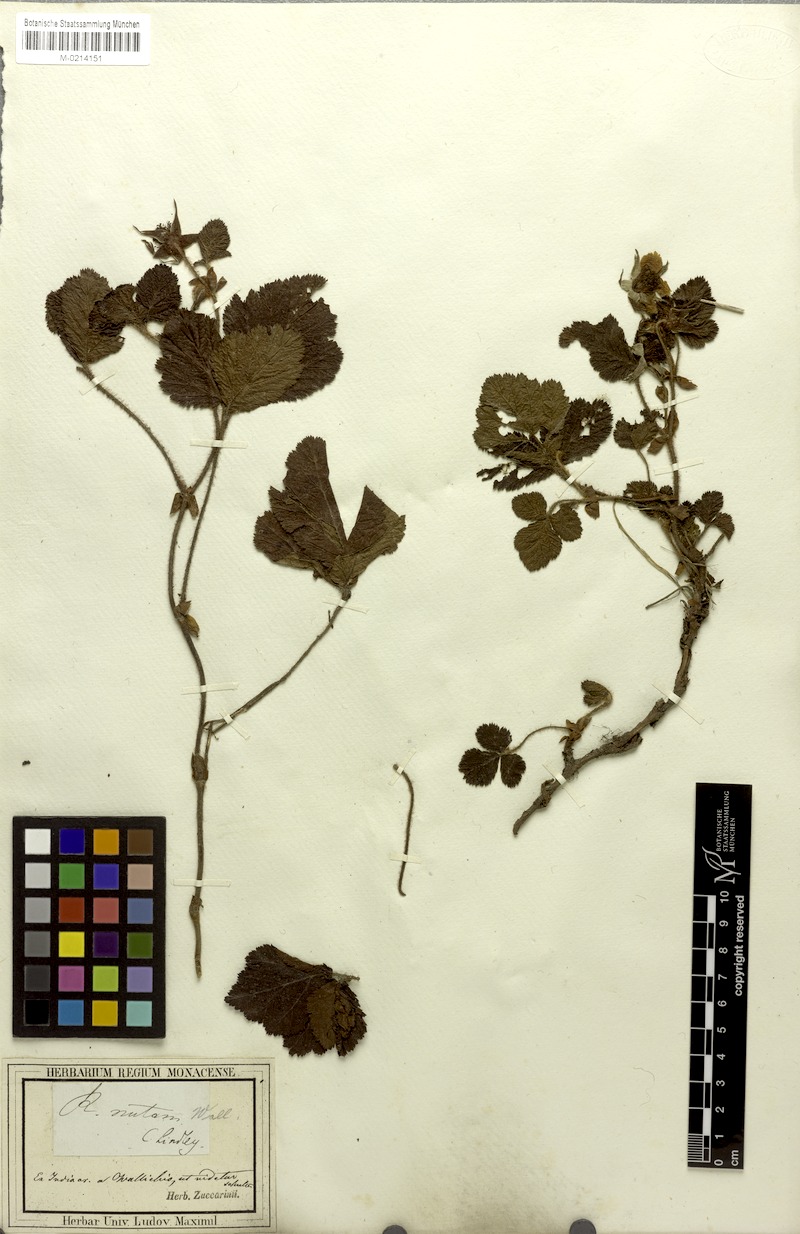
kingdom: Plantae
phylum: Tracheophyta
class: Magnoliopsida
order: Rosales
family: Rosaceae
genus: Rubus
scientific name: Rubus nepalensis
